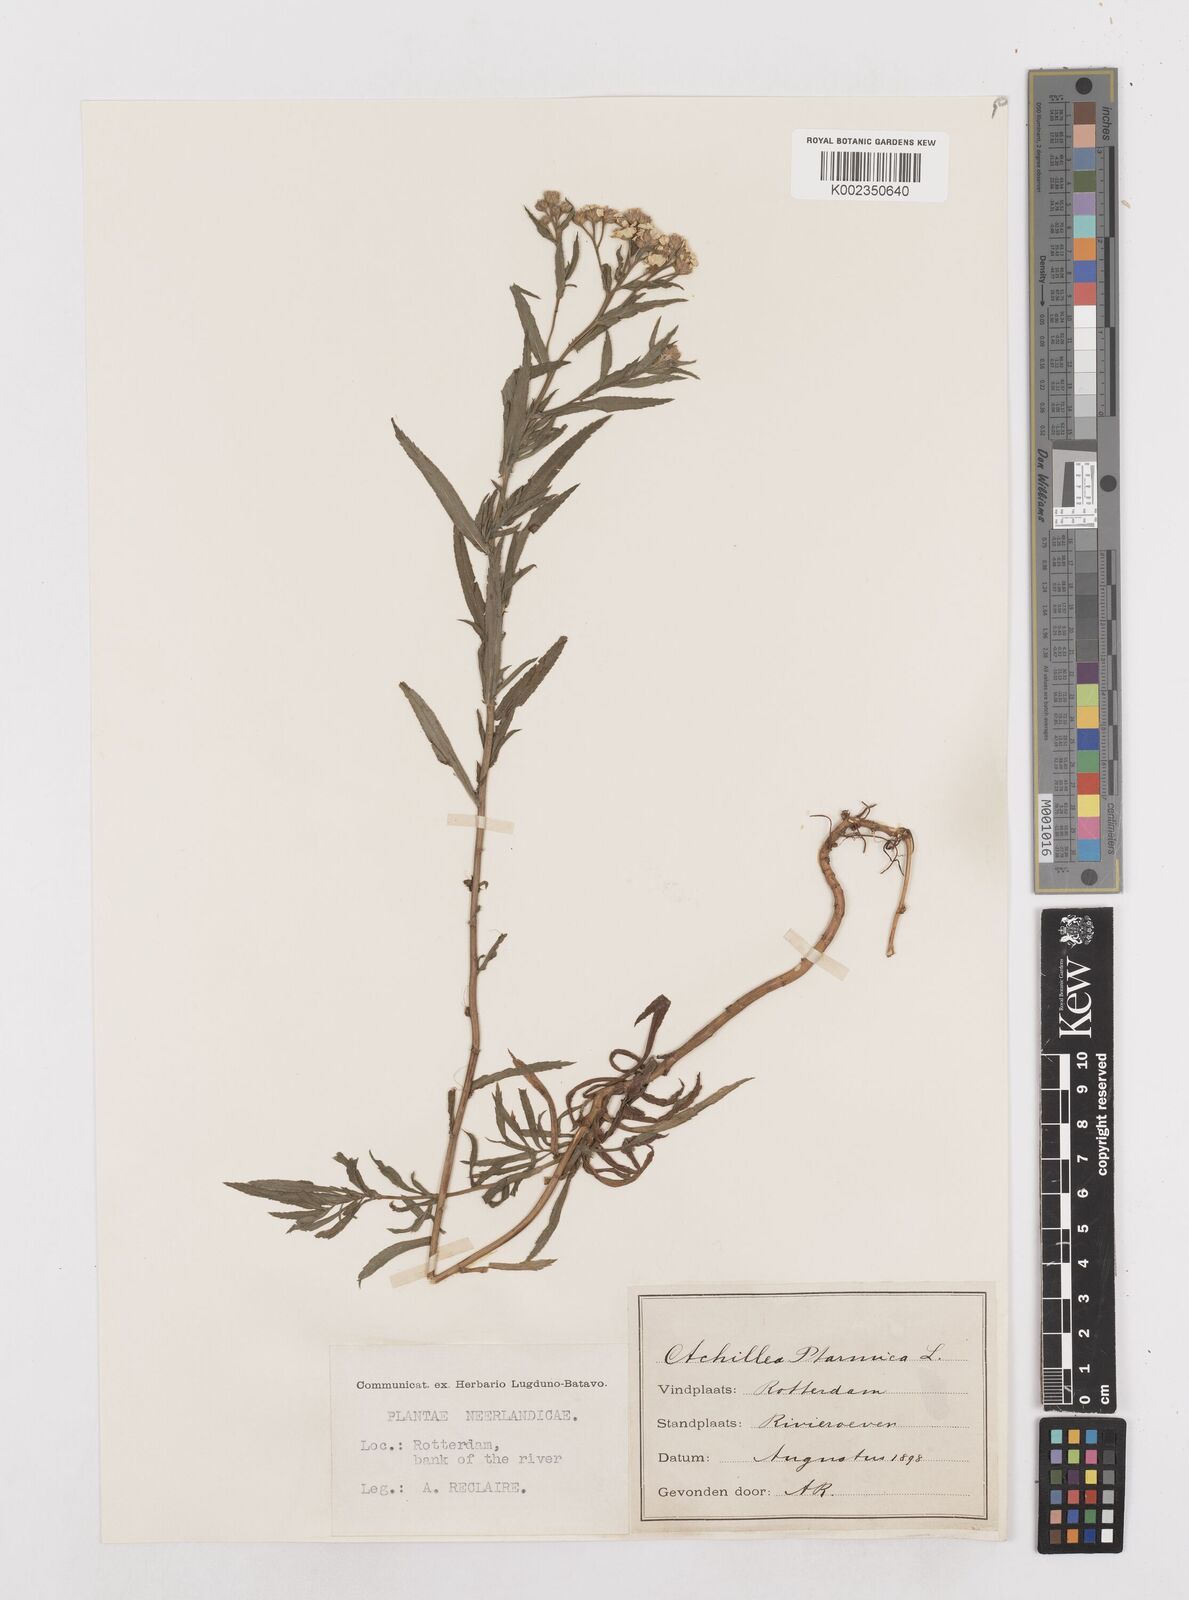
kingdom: Plantae
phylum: Tracheophyta
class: Magnoliopsida
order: Asterales
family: Asteraceae
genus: Achillea
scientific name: Achillea ptarmica
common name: Sneezeweed
